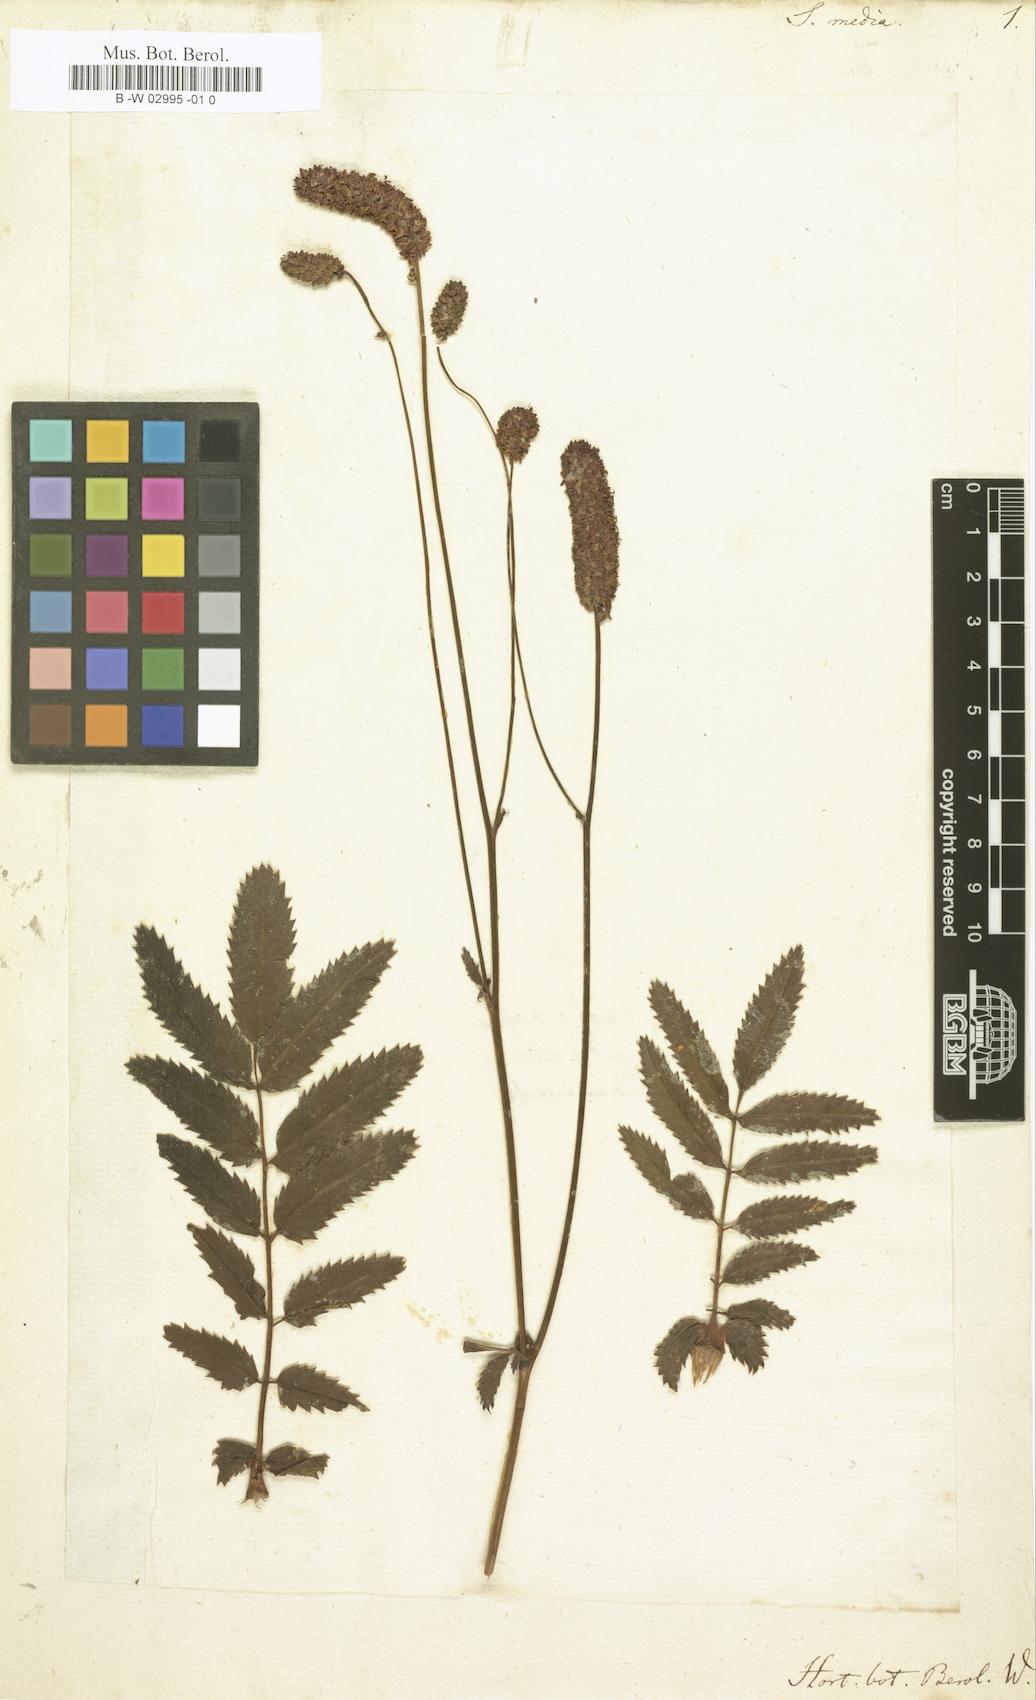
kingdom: Plantae
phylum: Tracheophyta
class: Magnoliopsida
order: Rosales
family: Rosaceae
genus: Sanguisorba
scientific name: Sanguisorba officinalis
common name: Great burnet
